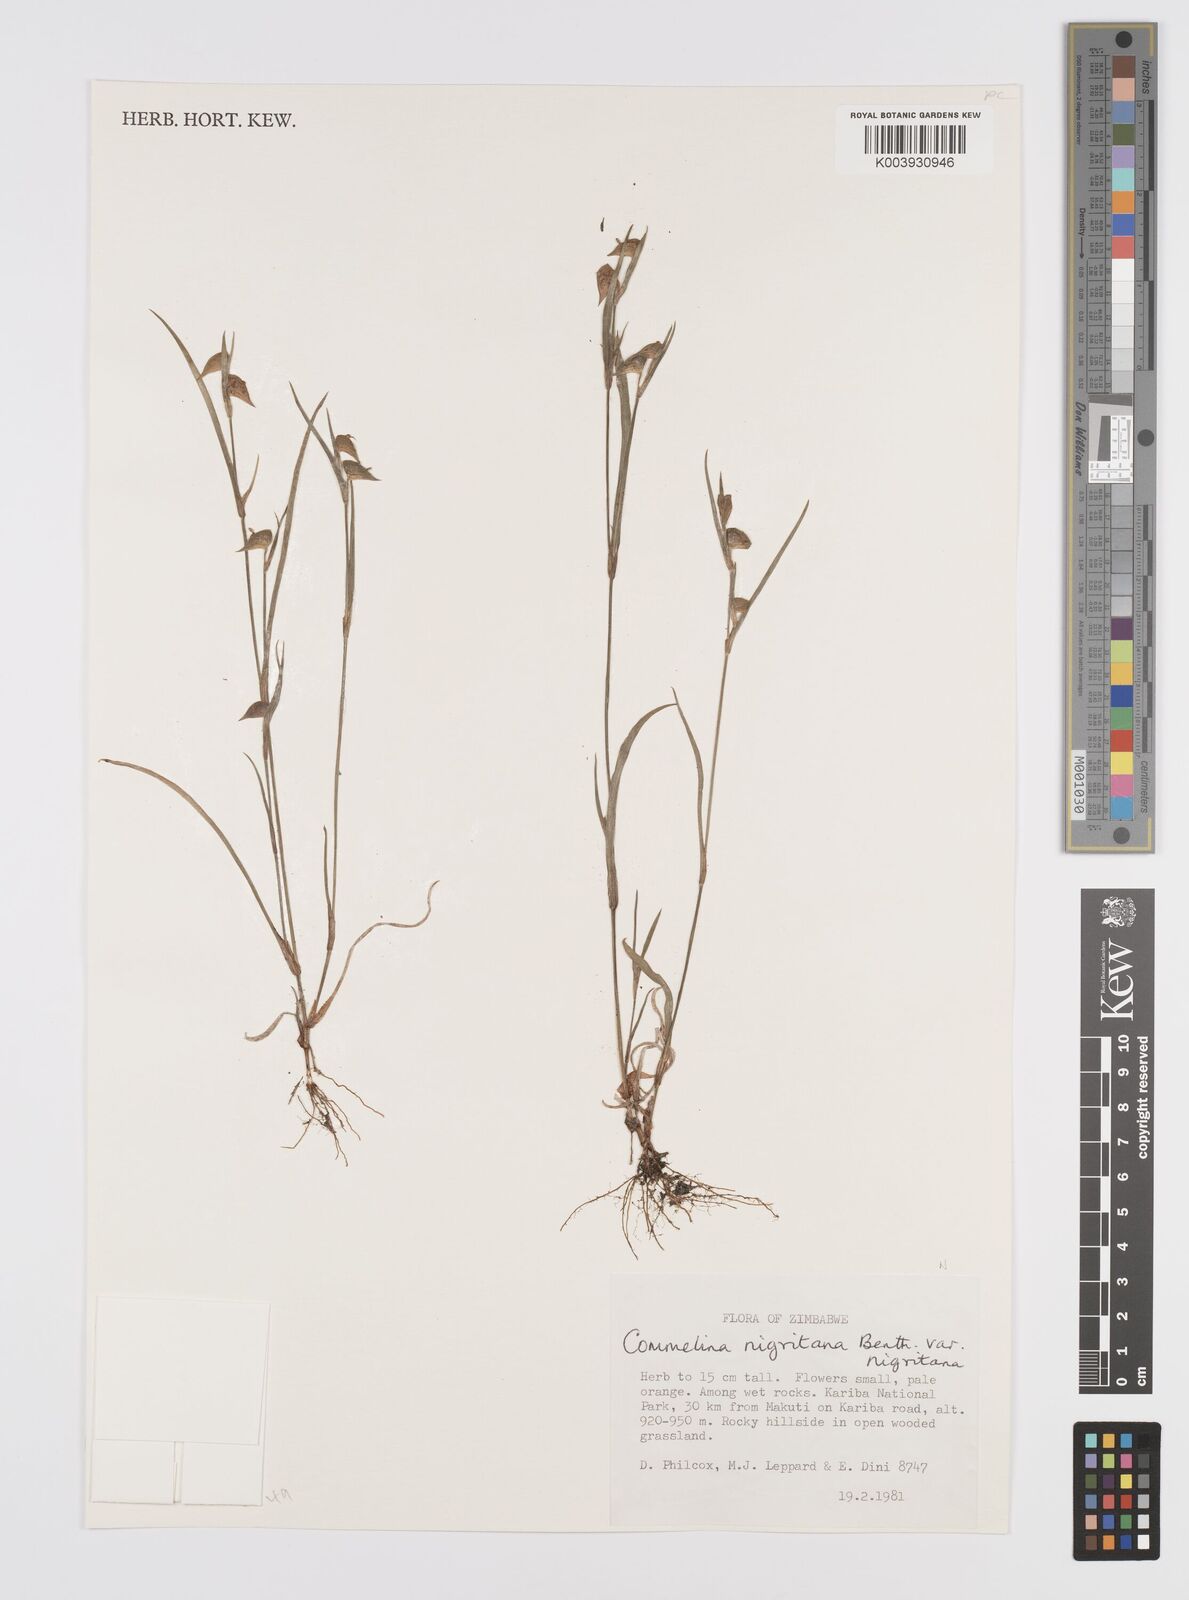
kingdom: Plantae
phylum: Tracheophyta
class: Liliopsida
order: Commelinales
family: Commelinaceae
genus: Commelina
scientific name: Commelina nigritana
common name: African dayflower
